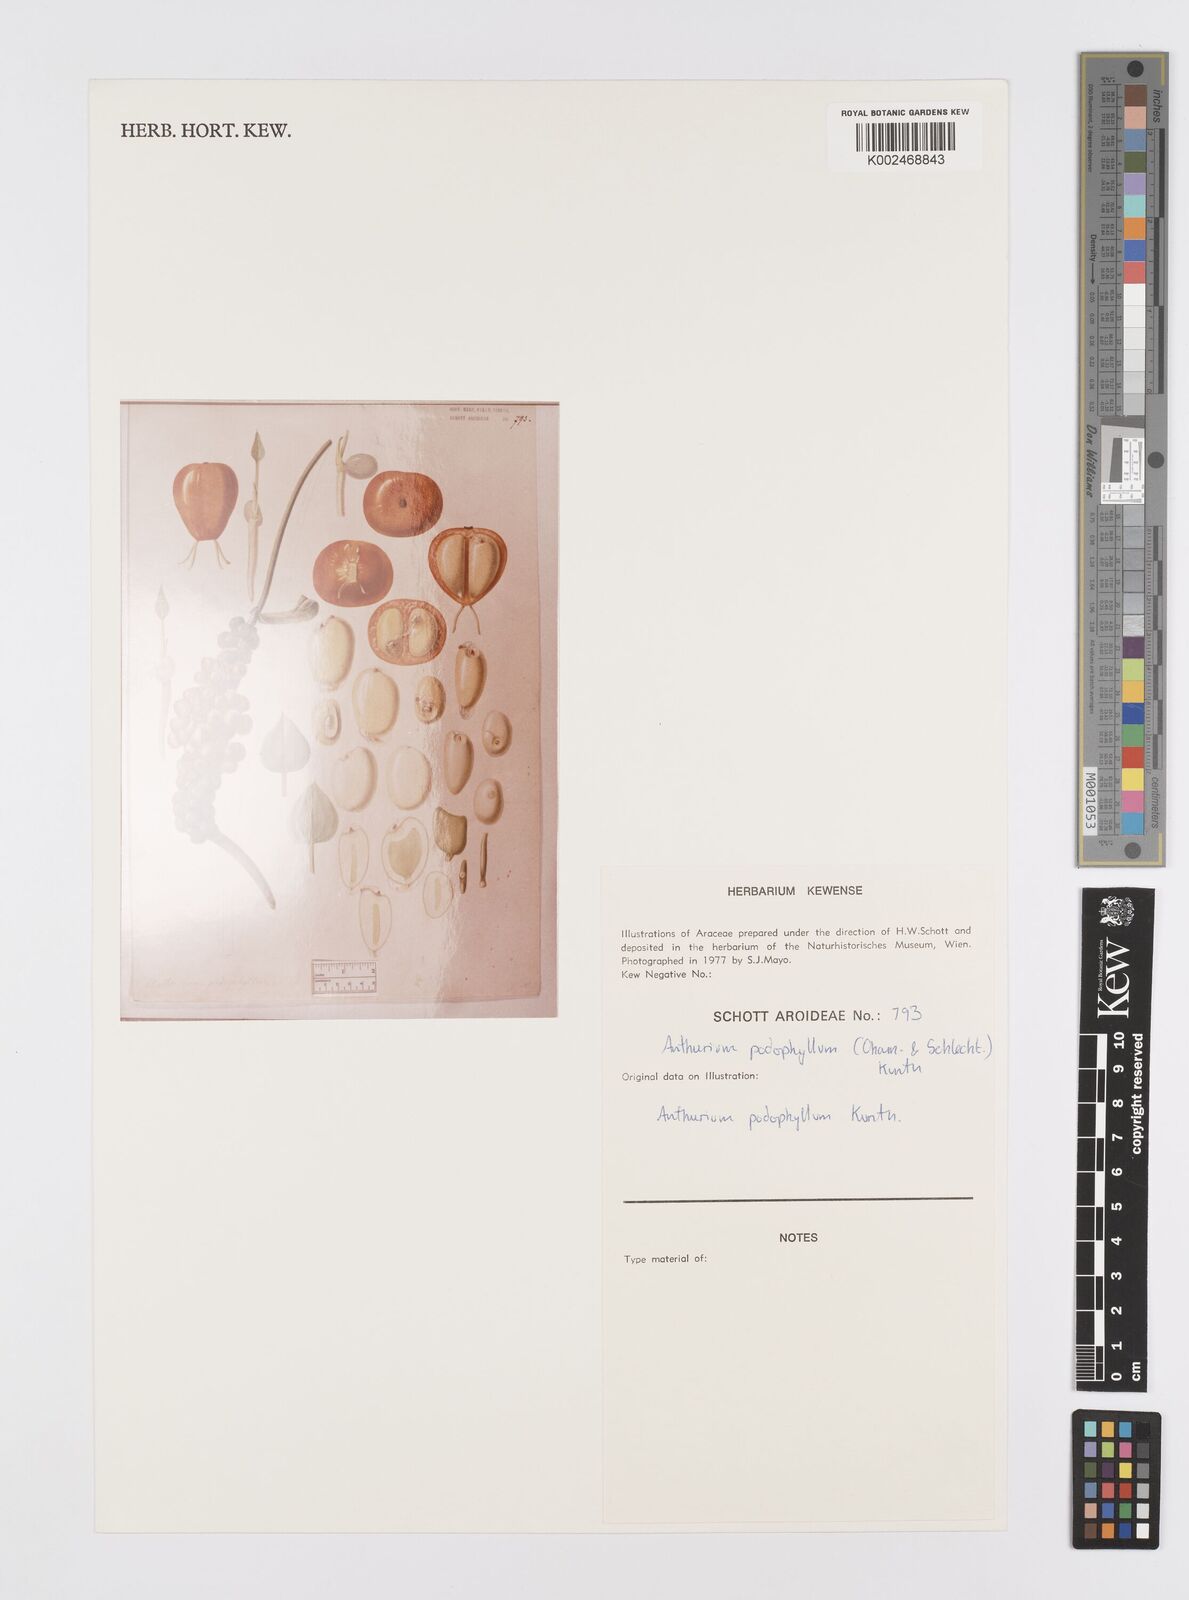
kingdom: Plantae
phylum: Tracheophyta
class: Liliopsida
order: Alismatales
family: Araceae
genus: Anthurium
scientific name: Anthurium podophyllum
